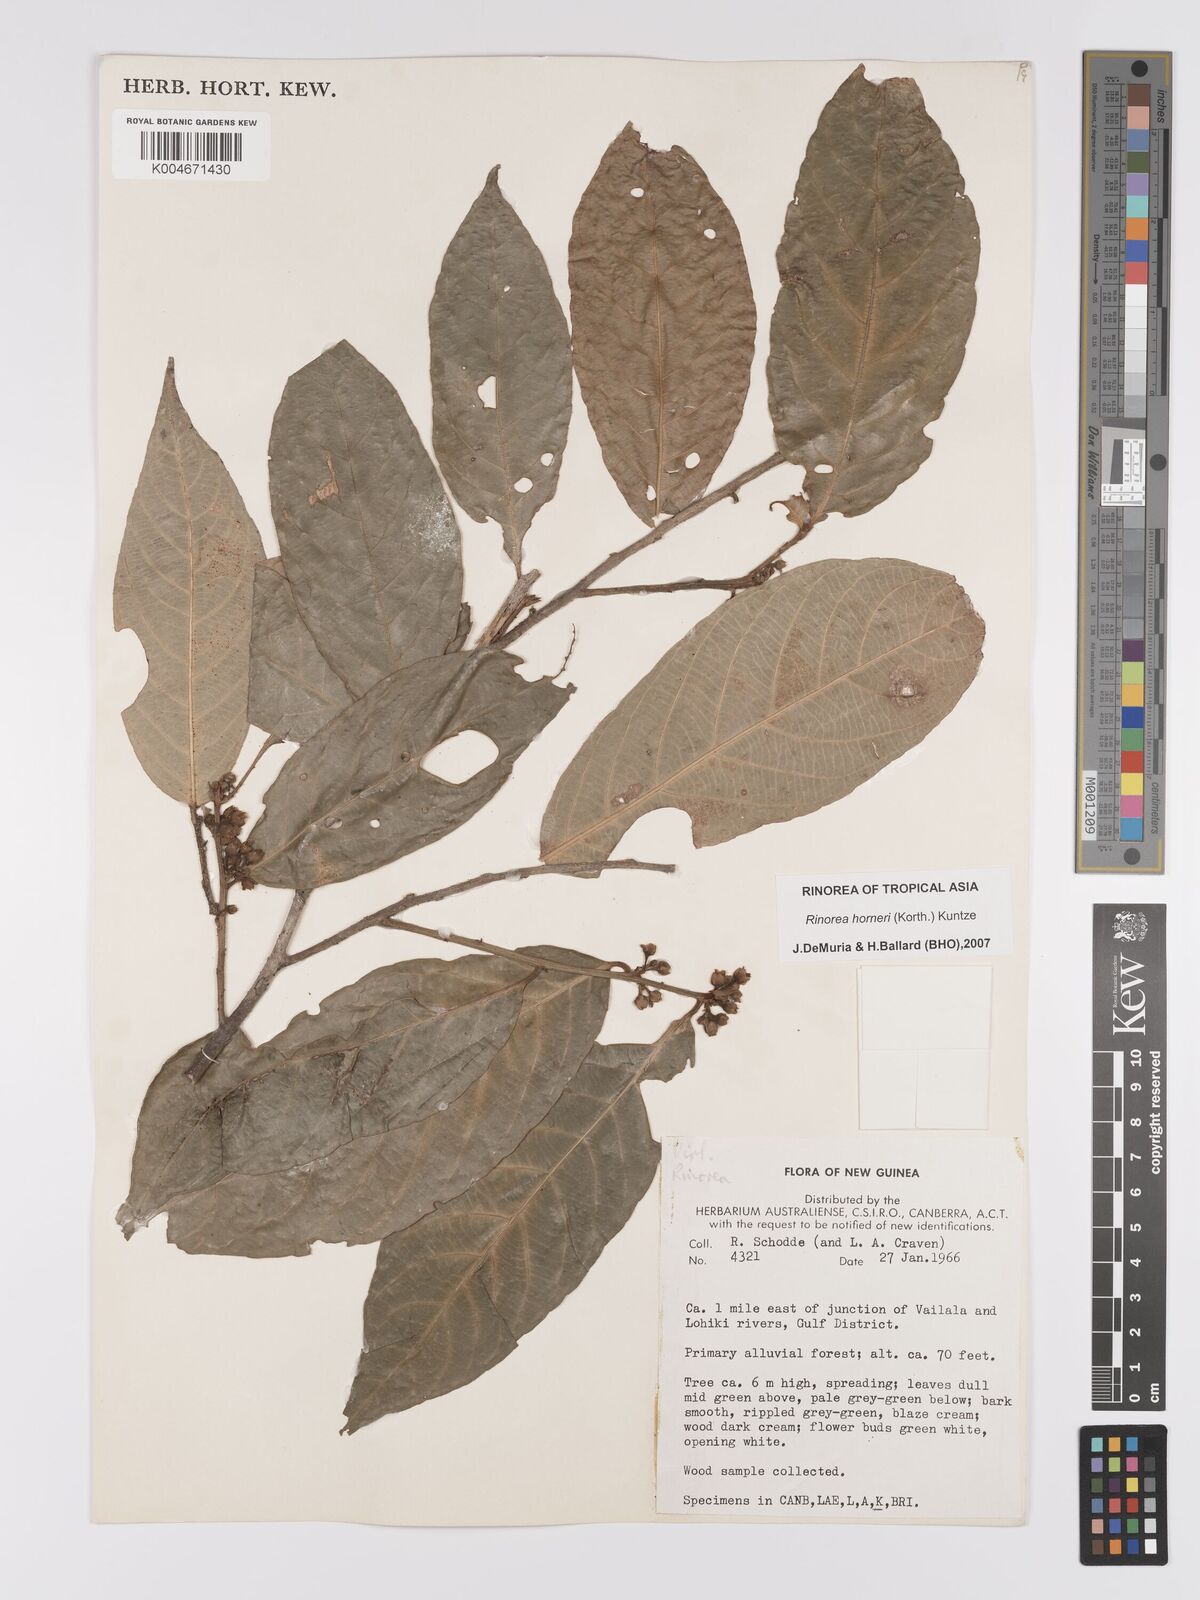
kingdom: Plantae
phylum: Tracheophyta
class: Magnoliopsida
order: Malpighiales
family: Violaceae
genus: Rinorea
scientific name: Rinorea horneri
